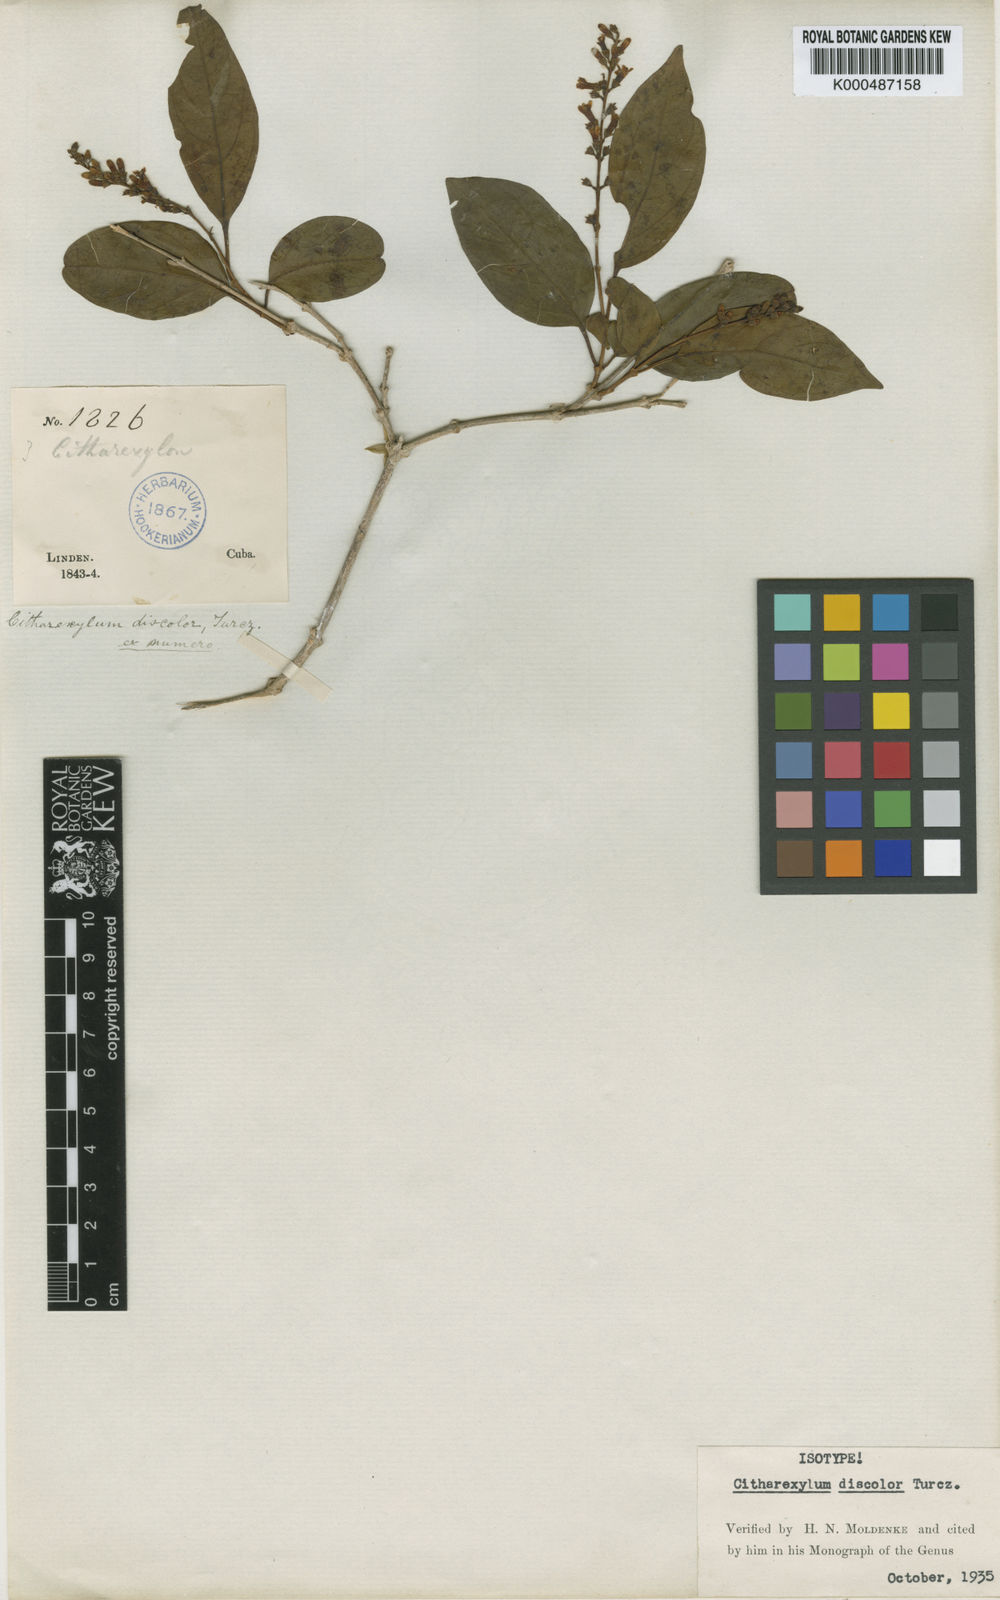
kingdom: Plantae
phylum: Tracheophyta
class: Magnoliopsida
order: Lamiales
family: Verbenaceae
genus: Citharexylum
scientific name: Citharexylum discolor
